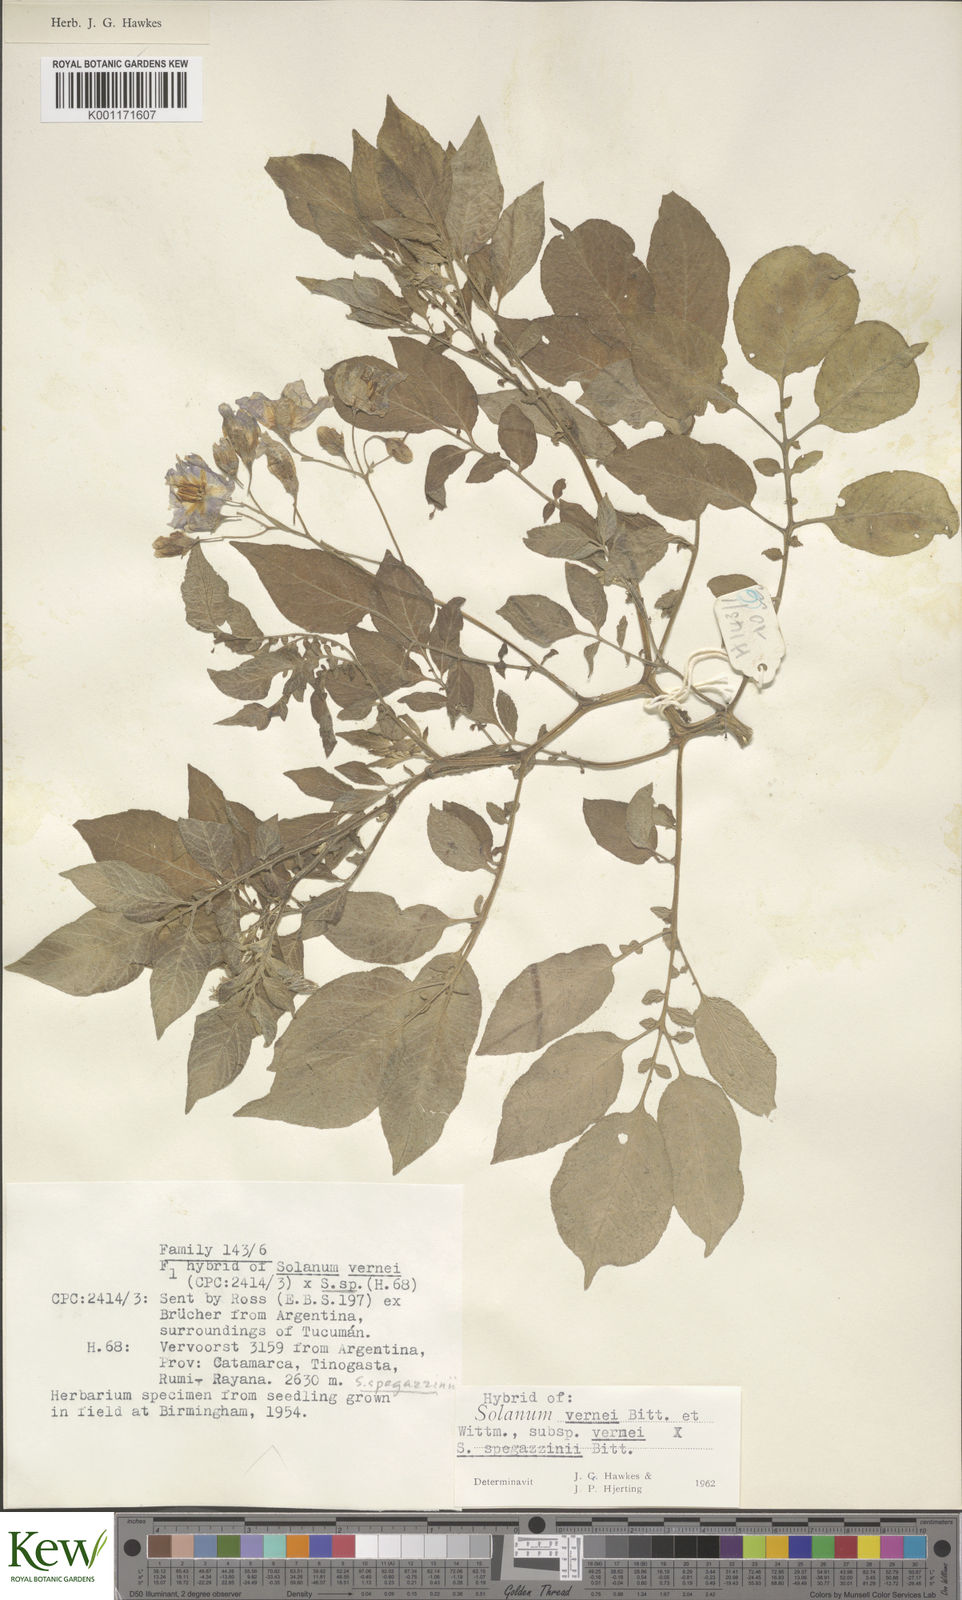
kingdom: Plantae
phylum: Tracheophyta
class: Magnoliopsida
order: Solanales
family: Solanaceae
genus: Solanum
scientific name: Solanum vernei
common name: Purple potato
